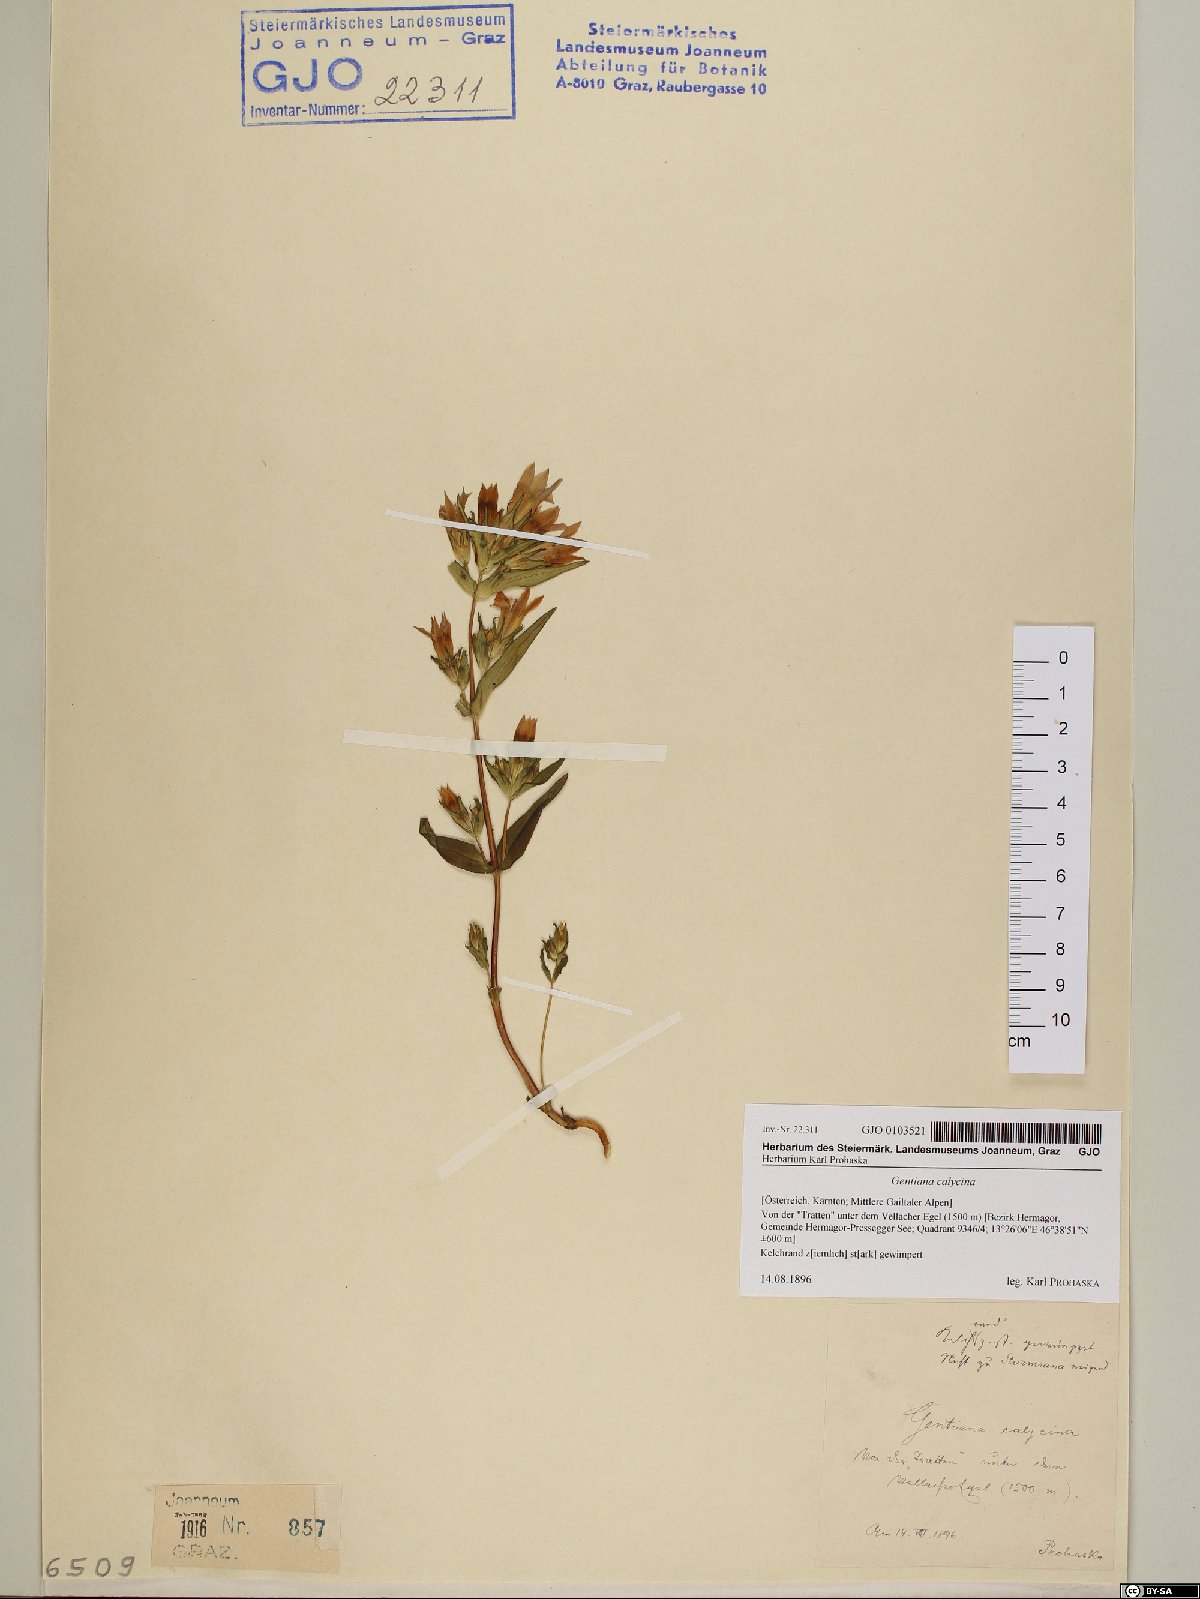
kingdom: Plantae
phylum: Tracheophyta
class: Magnoliopsida
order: Gentianales
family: Gentianaceae
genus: Gentianella
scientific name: Gentianella germanica
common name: Chiltern-gentian
